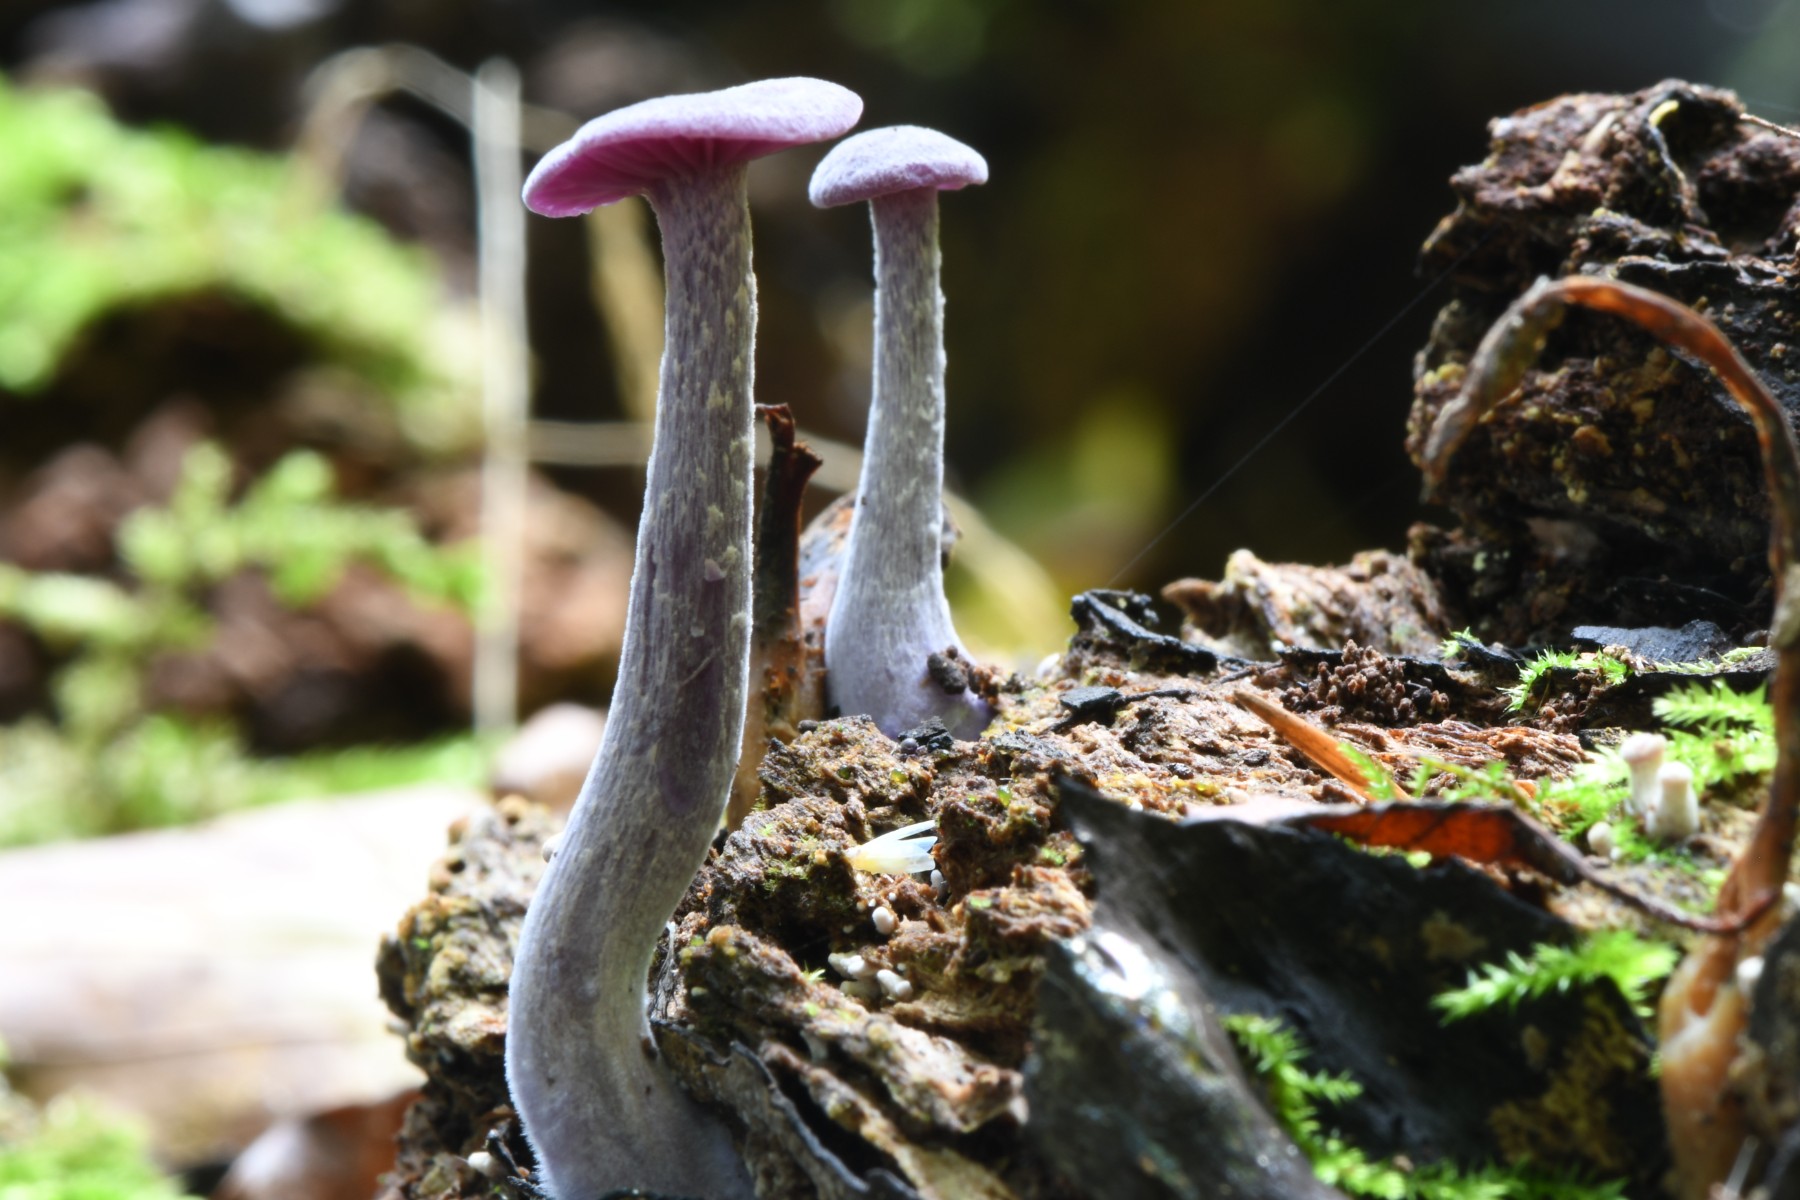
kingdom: Fungi
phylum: Basidiomycota
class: Agaricomycetes
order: Agaricales
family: Hydnangiaceae
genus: Laccaria
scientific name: Laccaria amethystina
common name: violet ametysthat
